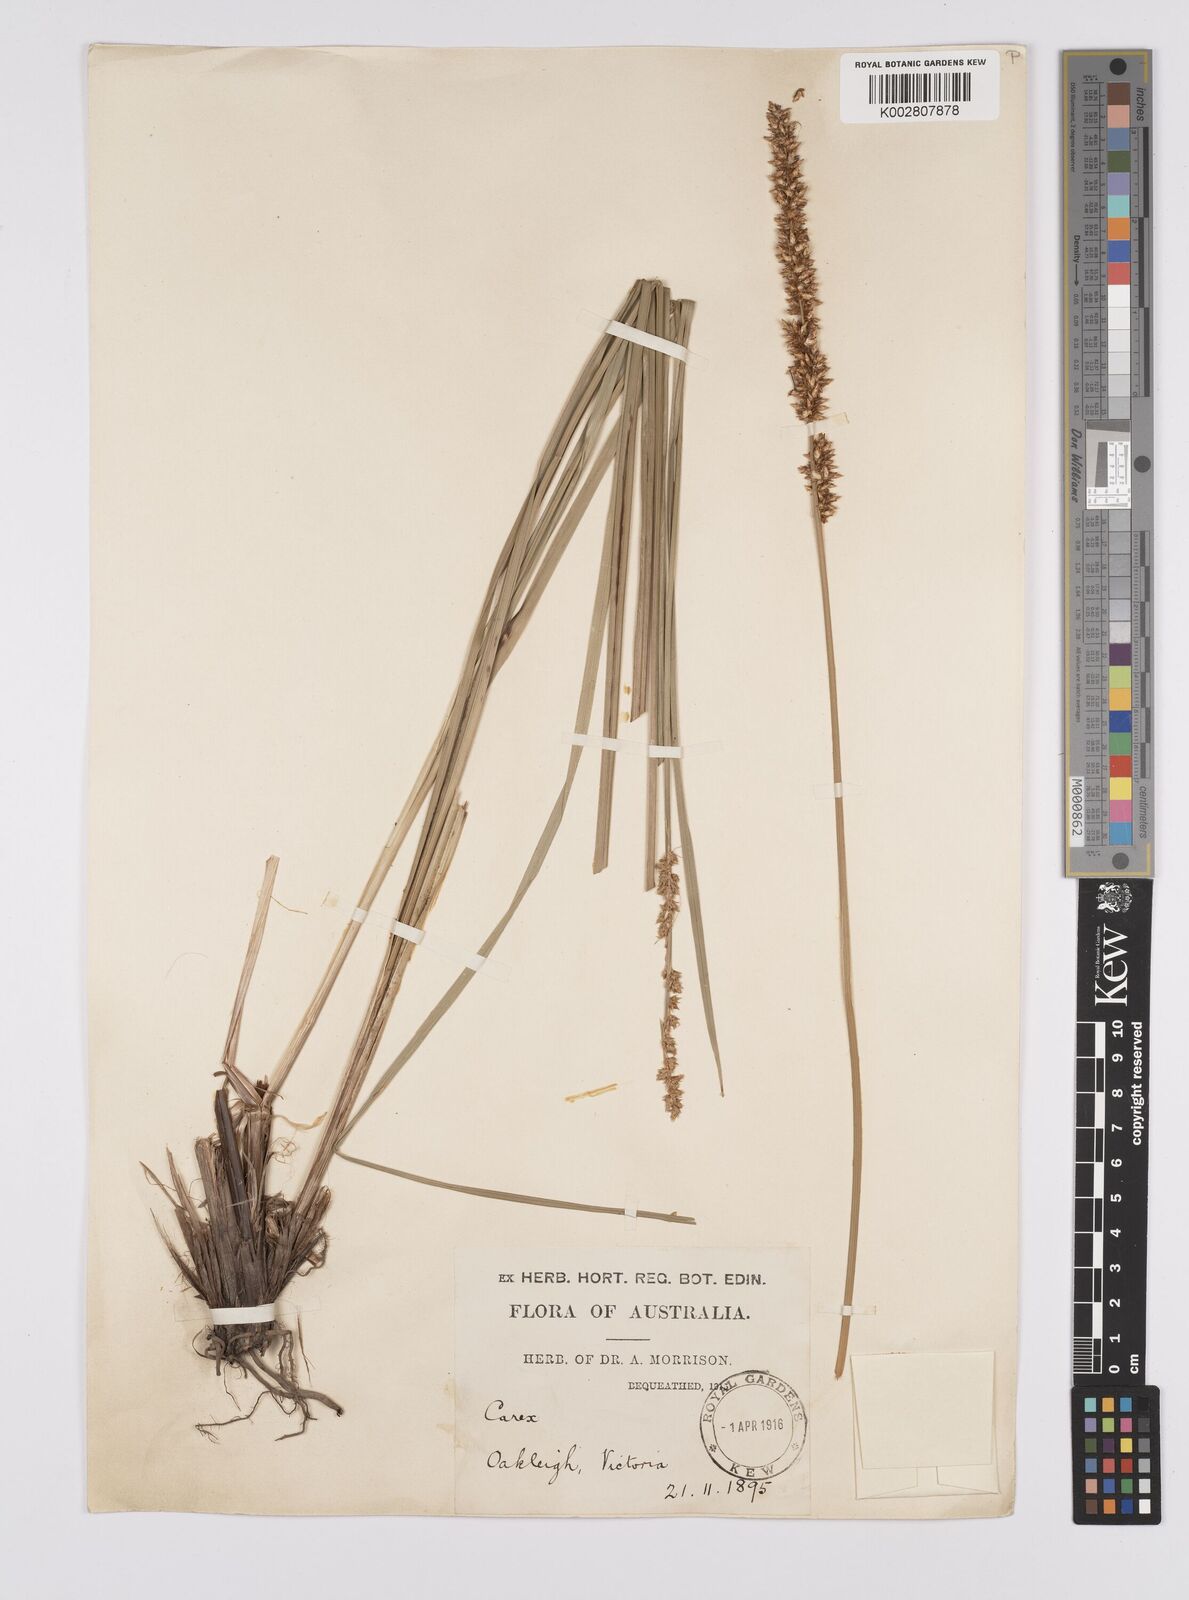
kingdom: Plantae
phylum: Tracheophyta
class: Liliopsida
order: Poales
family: Cyperaceae
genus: Carex
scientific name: Carex appressa
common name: Tussock sedge
